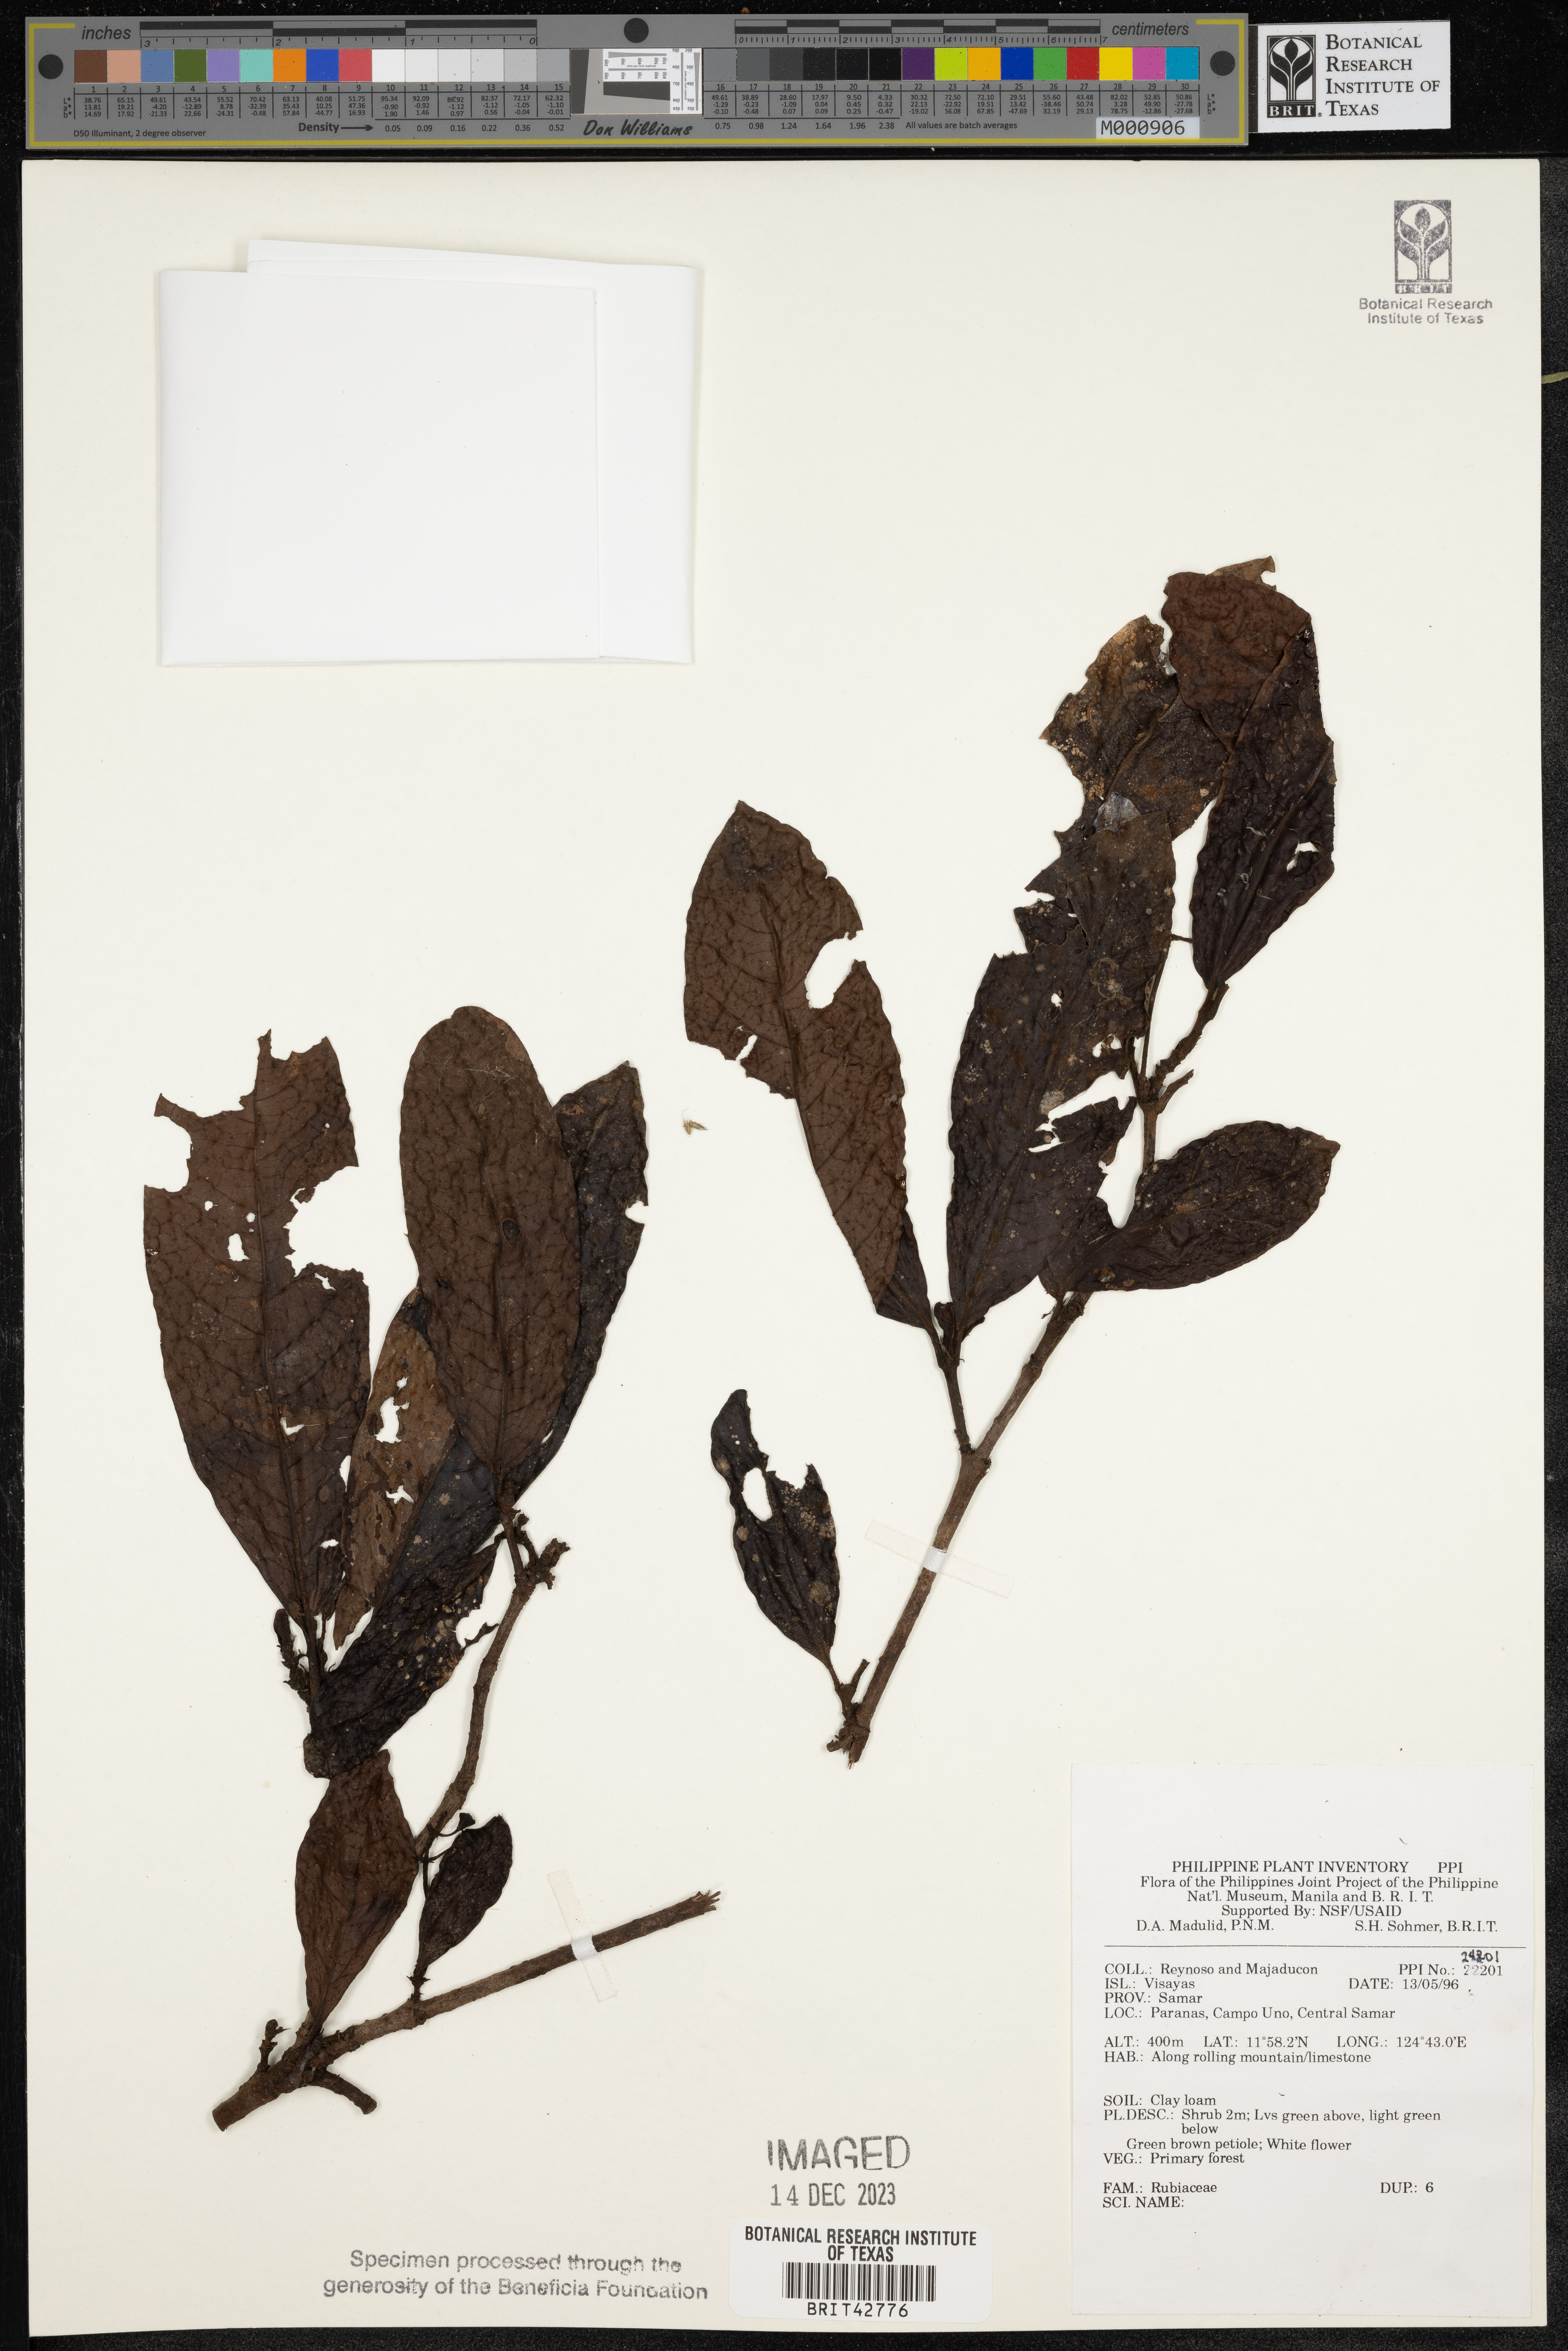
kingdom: Plantae
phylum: Tracheophyta
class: Magnoliopsida
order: Gentianales
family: Rubiaceae
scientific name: Rubiaceae
